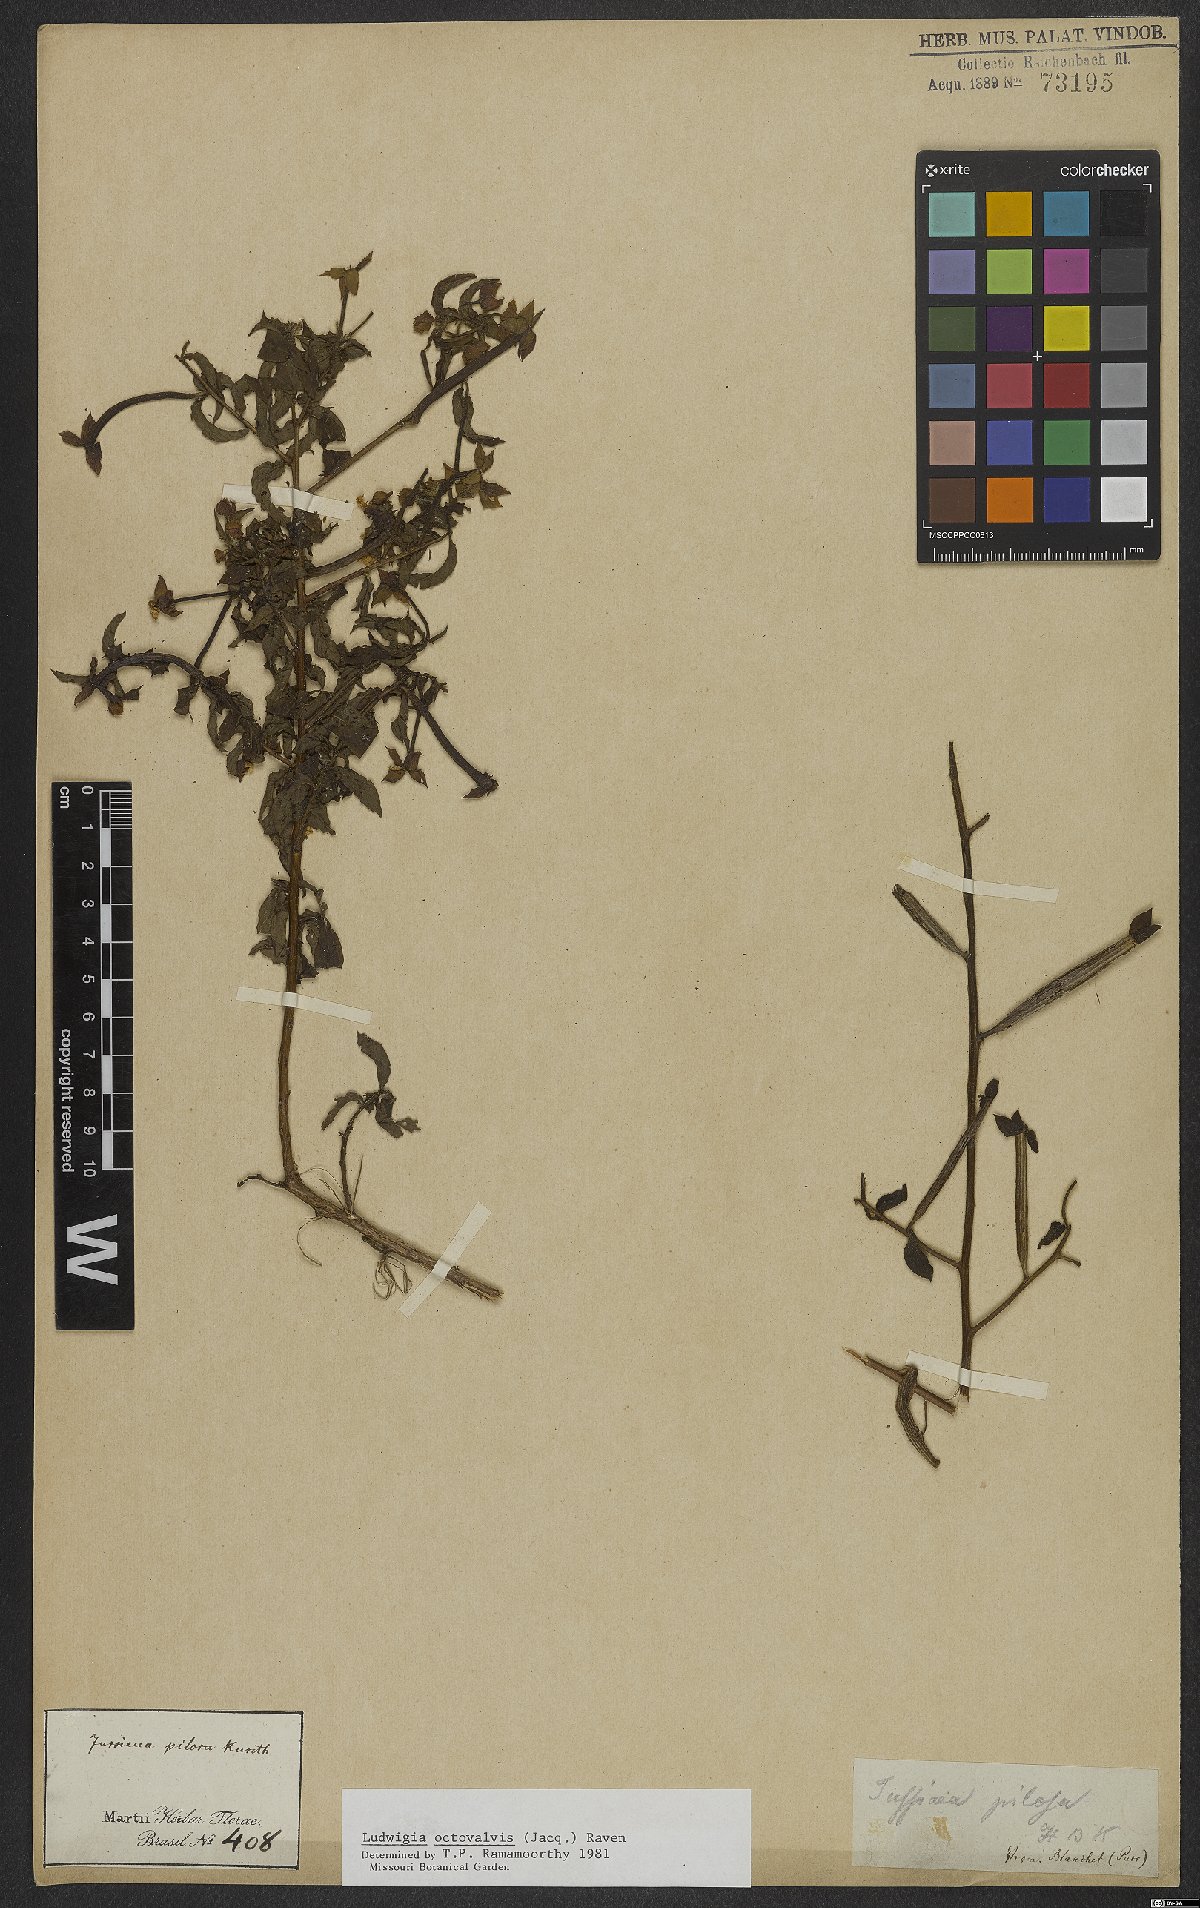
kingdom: Plantae
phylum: Tracheophyta
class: Magnoliopsida
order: Myrtales
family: Onagraceae
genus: Ludwigia
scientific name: Ludwigia octovalvis
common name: Water-primrose
